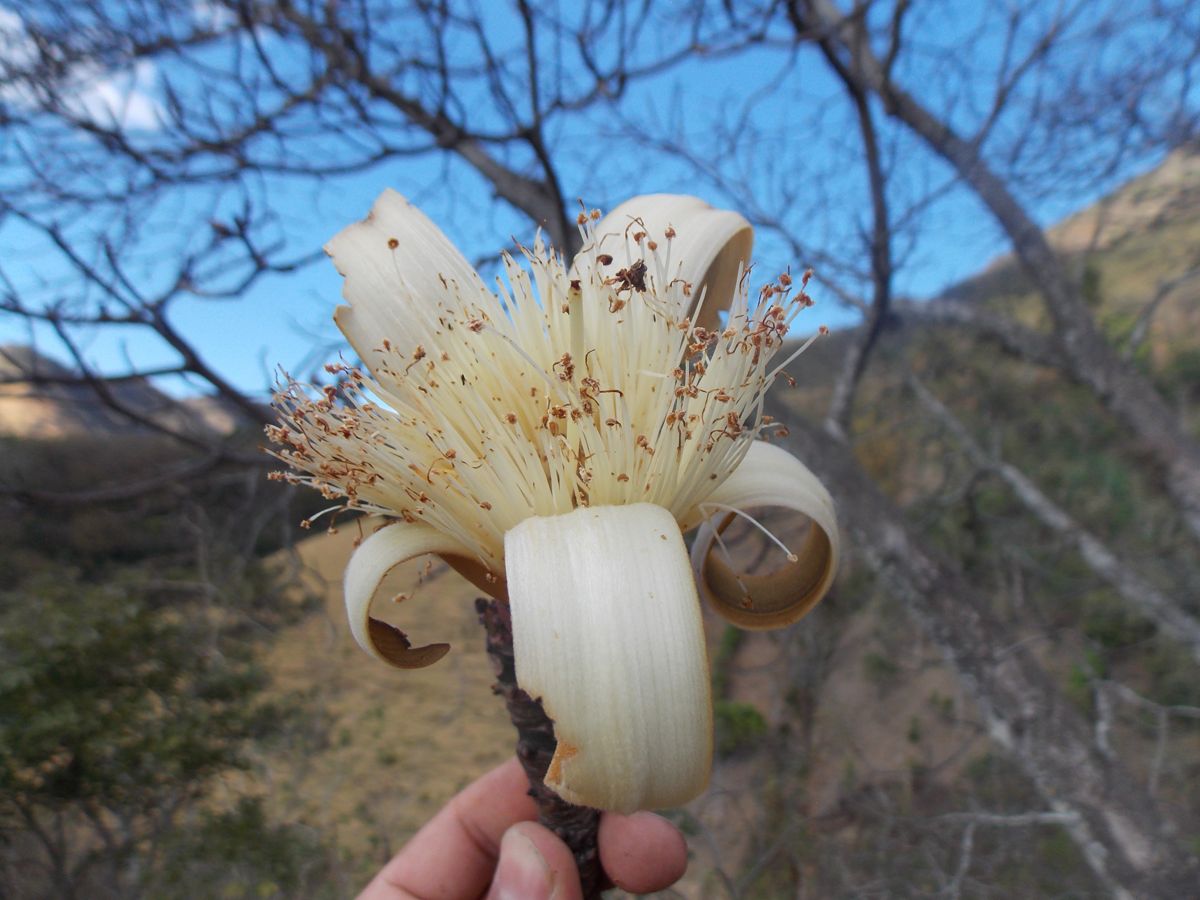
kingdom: Plantae
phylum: Tracheophyta
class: Magnoliopsida
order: Malvales
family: Malvaceae
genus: Ceiba
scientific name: Ceiba aesculifolia
